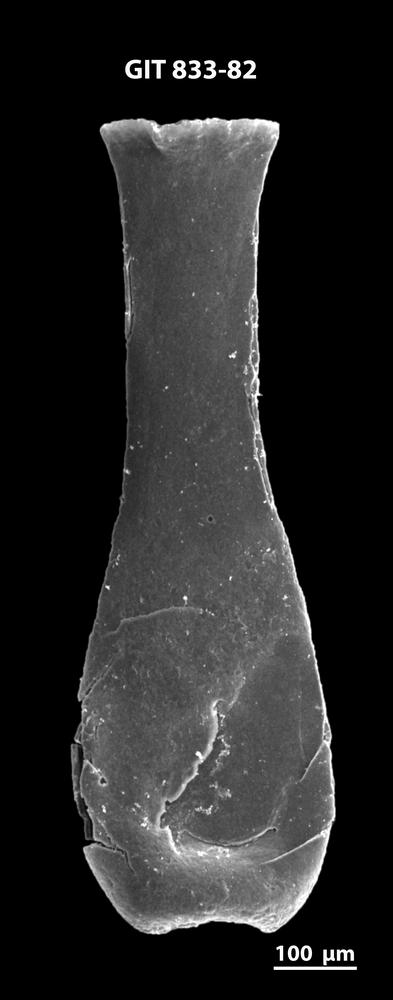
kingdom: Animalia
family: Lagenochitinidae
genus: Lagenochitina
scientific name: Lagenochitina megaesthonica
